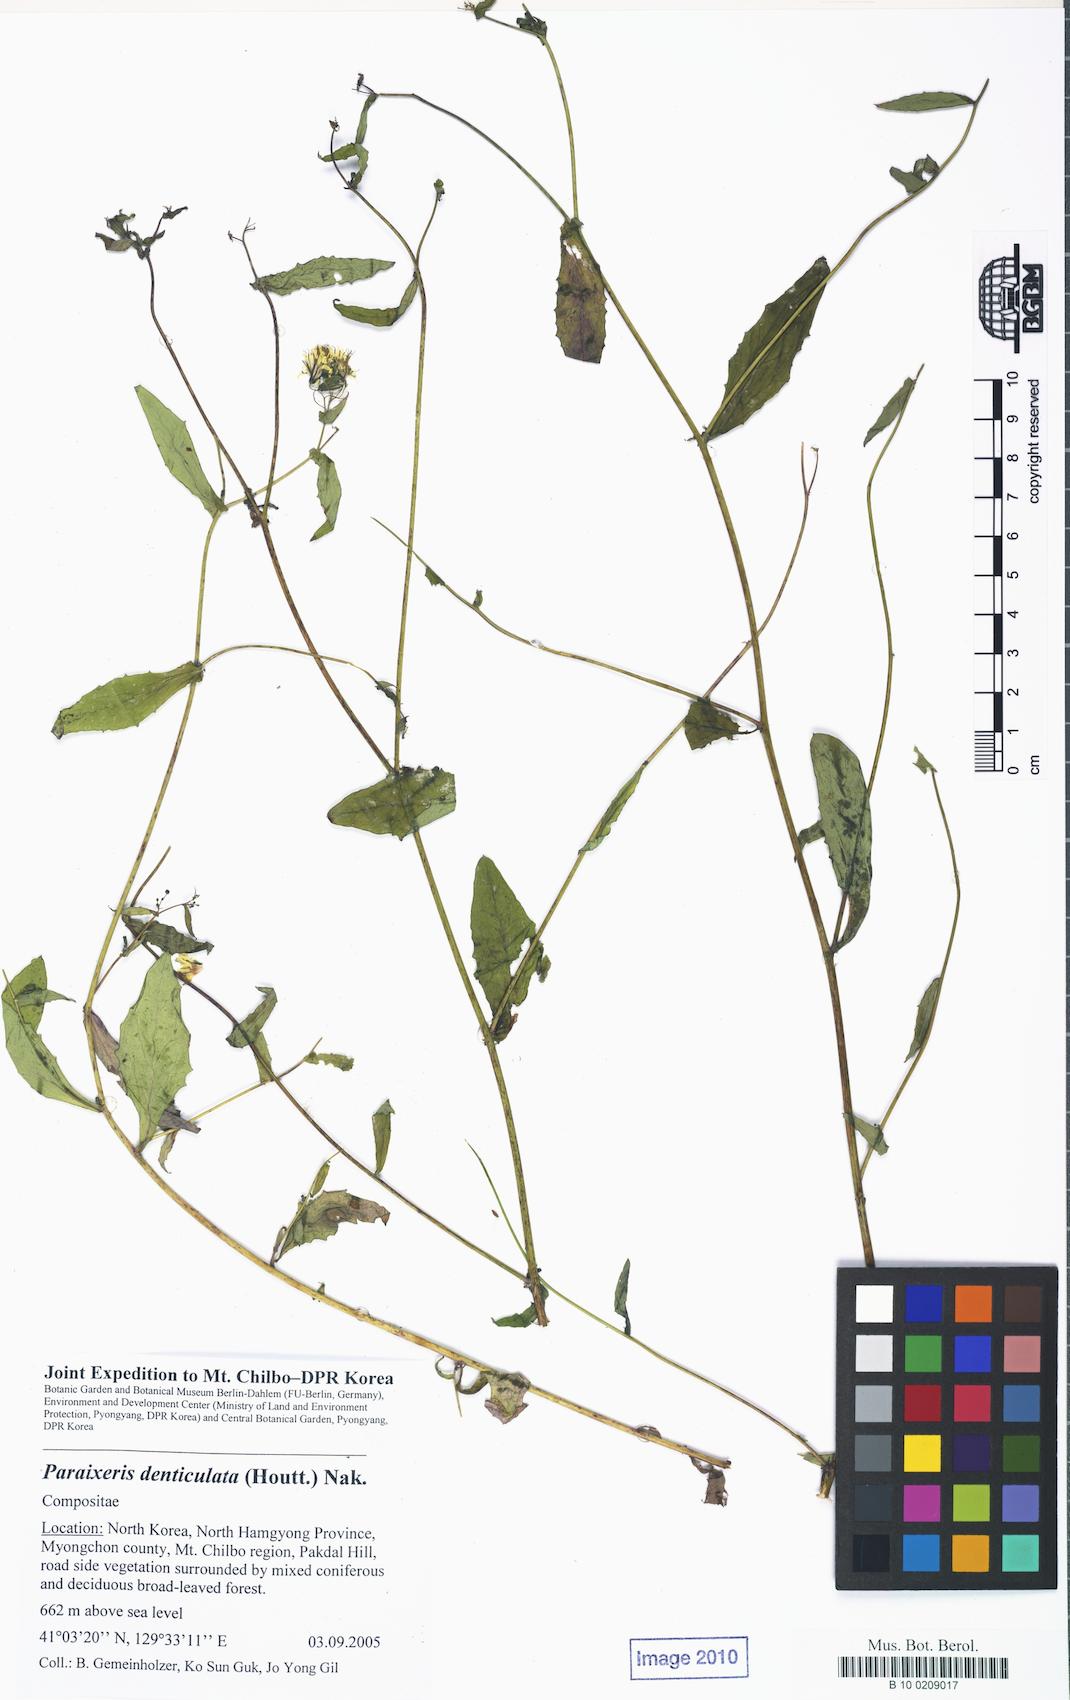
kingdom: Plantae
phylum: Tracheophyta
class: Magnoliopsida
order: Asterales
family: Asteraceae
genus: Crepidiastrum
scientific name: Crepidiastrum denticulatum
